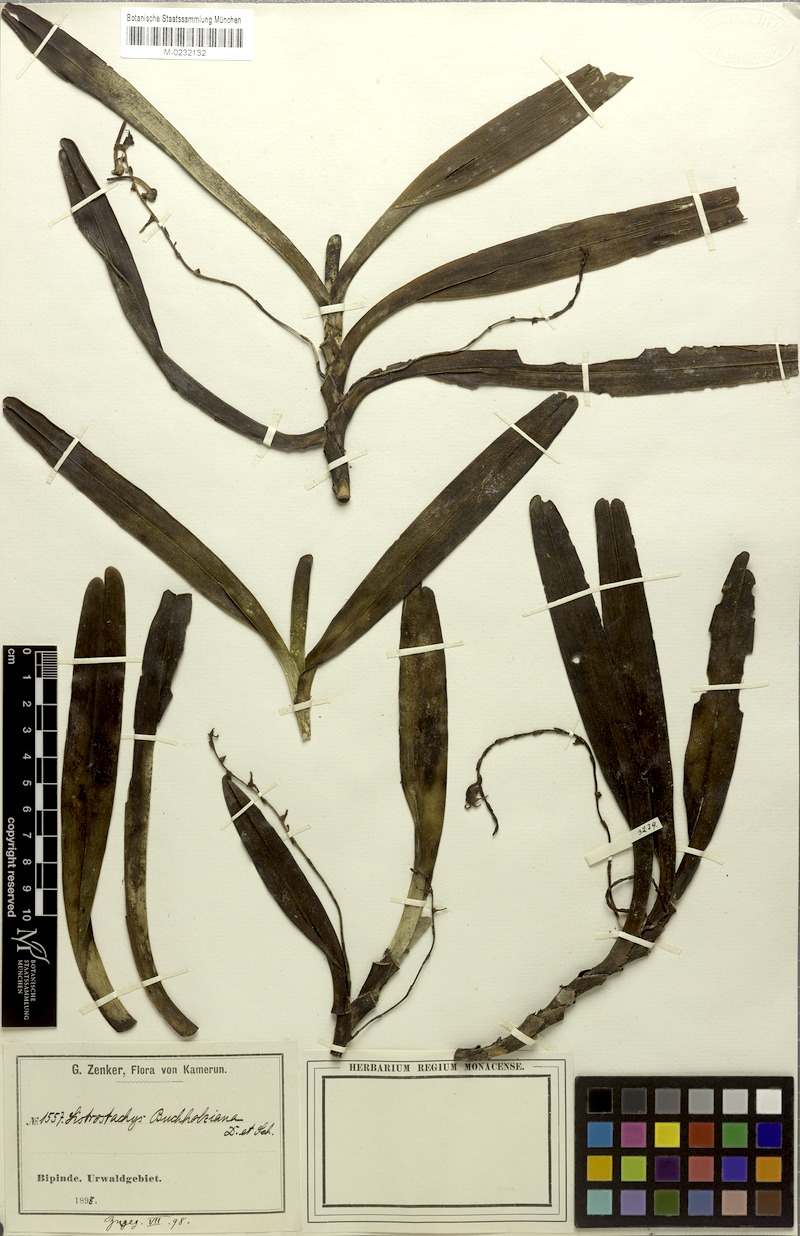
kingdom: Plantae
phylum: Tracheophyta
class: Liliopsida
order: Asparagales
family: Orchidaceae
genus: Cyrtorchis
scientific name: Cyrtorchis ringens
